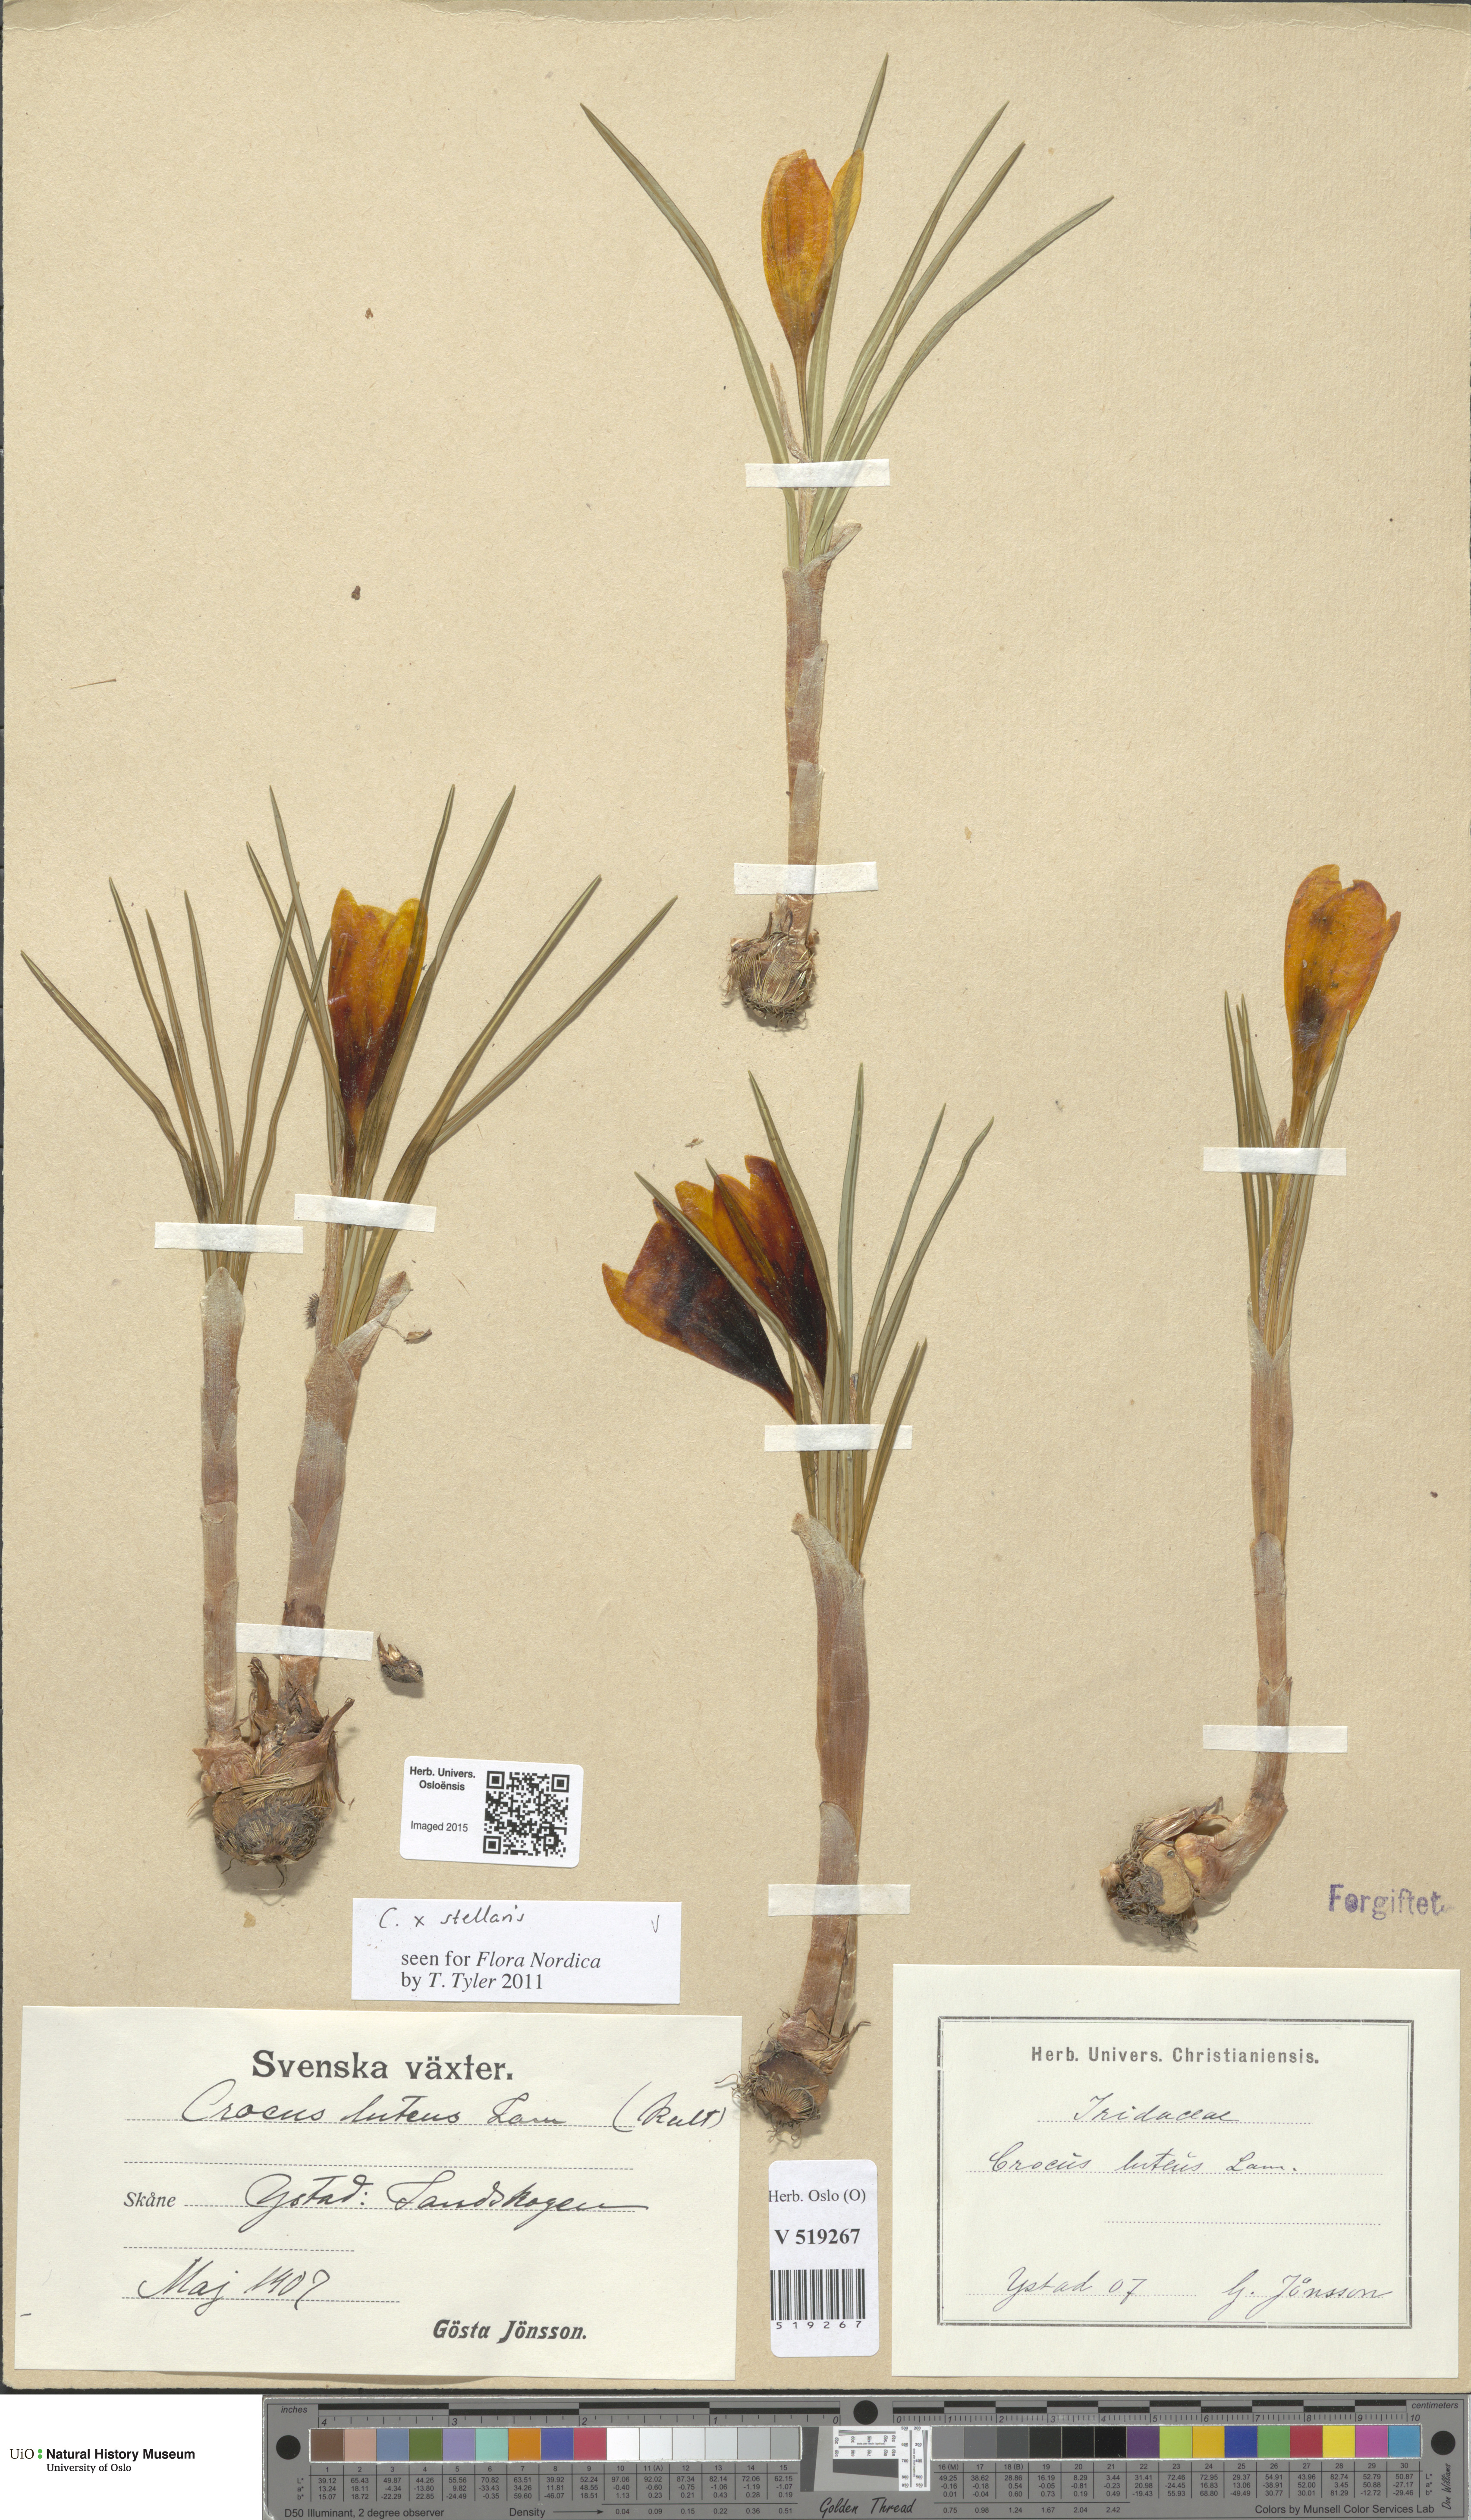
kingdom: Plantae
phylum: Tracheophyta
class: Liliopsida
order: Asparagales
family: Iridaceae
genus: Crocus
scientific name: Crocus luteus
